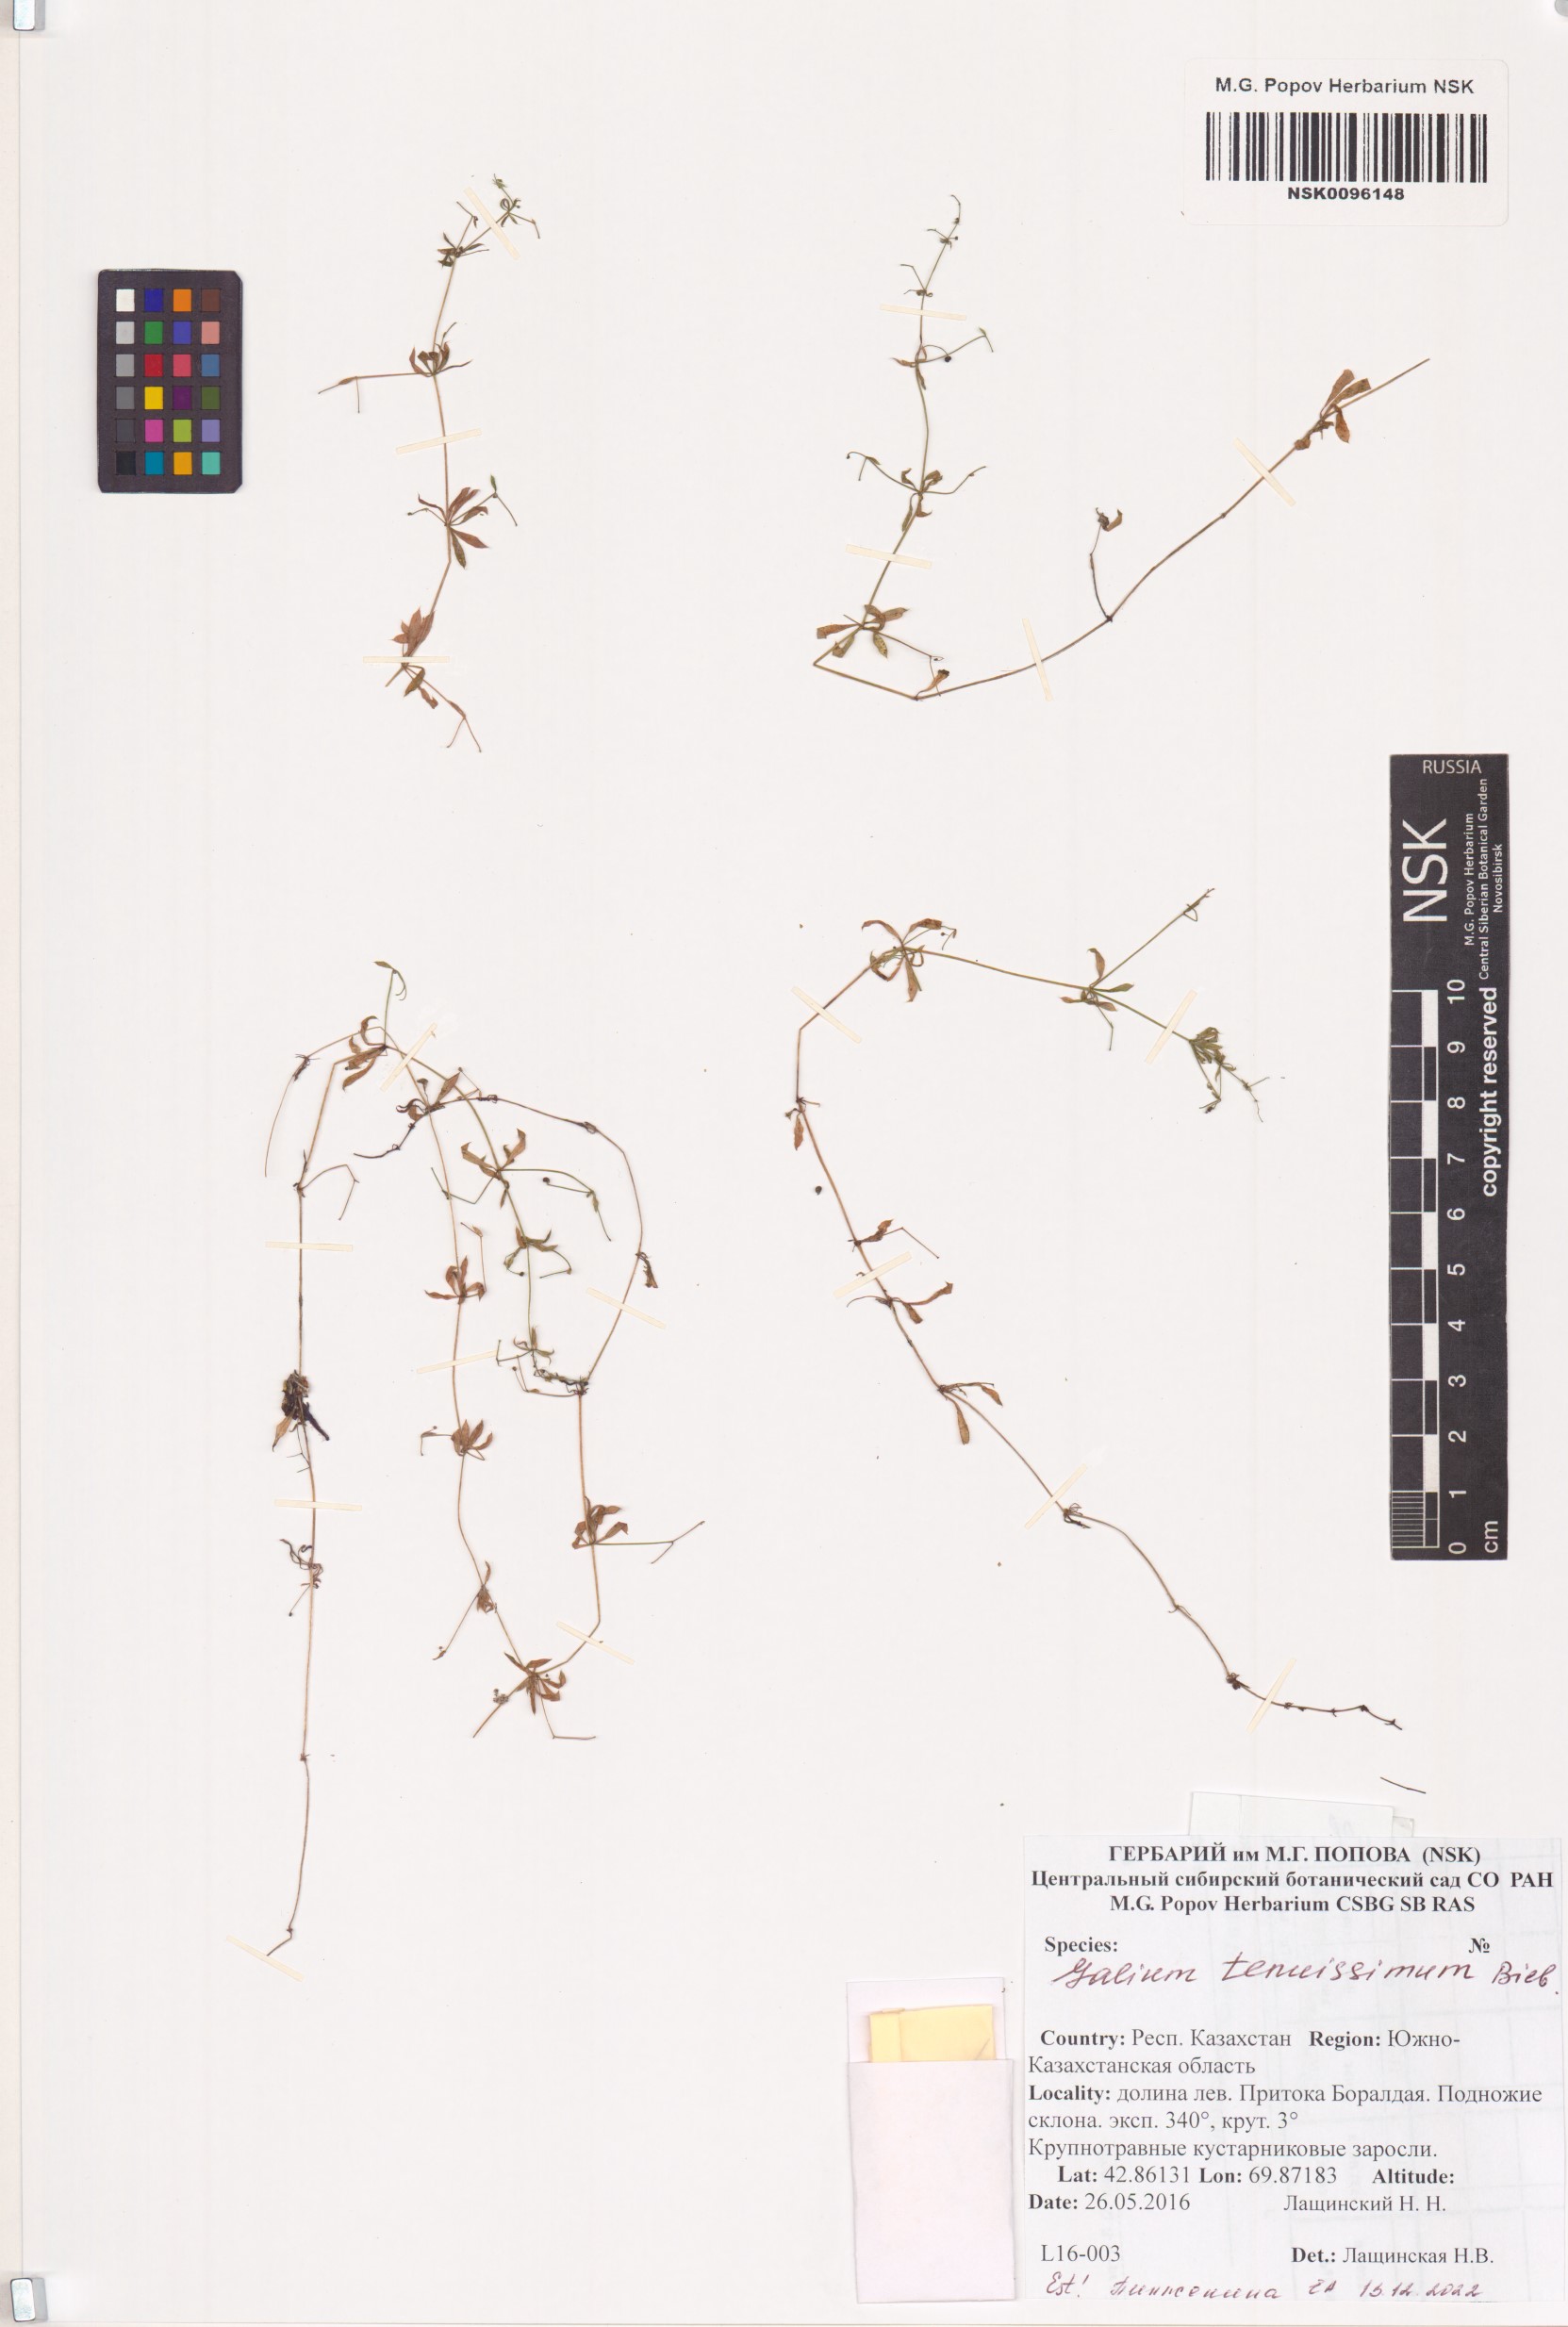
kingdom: Plantae
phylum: Tracheophyta
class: Magnoliopsida
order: Gentianales
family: Rubiaceae
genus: Galium
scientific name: Galium tenuissimum
